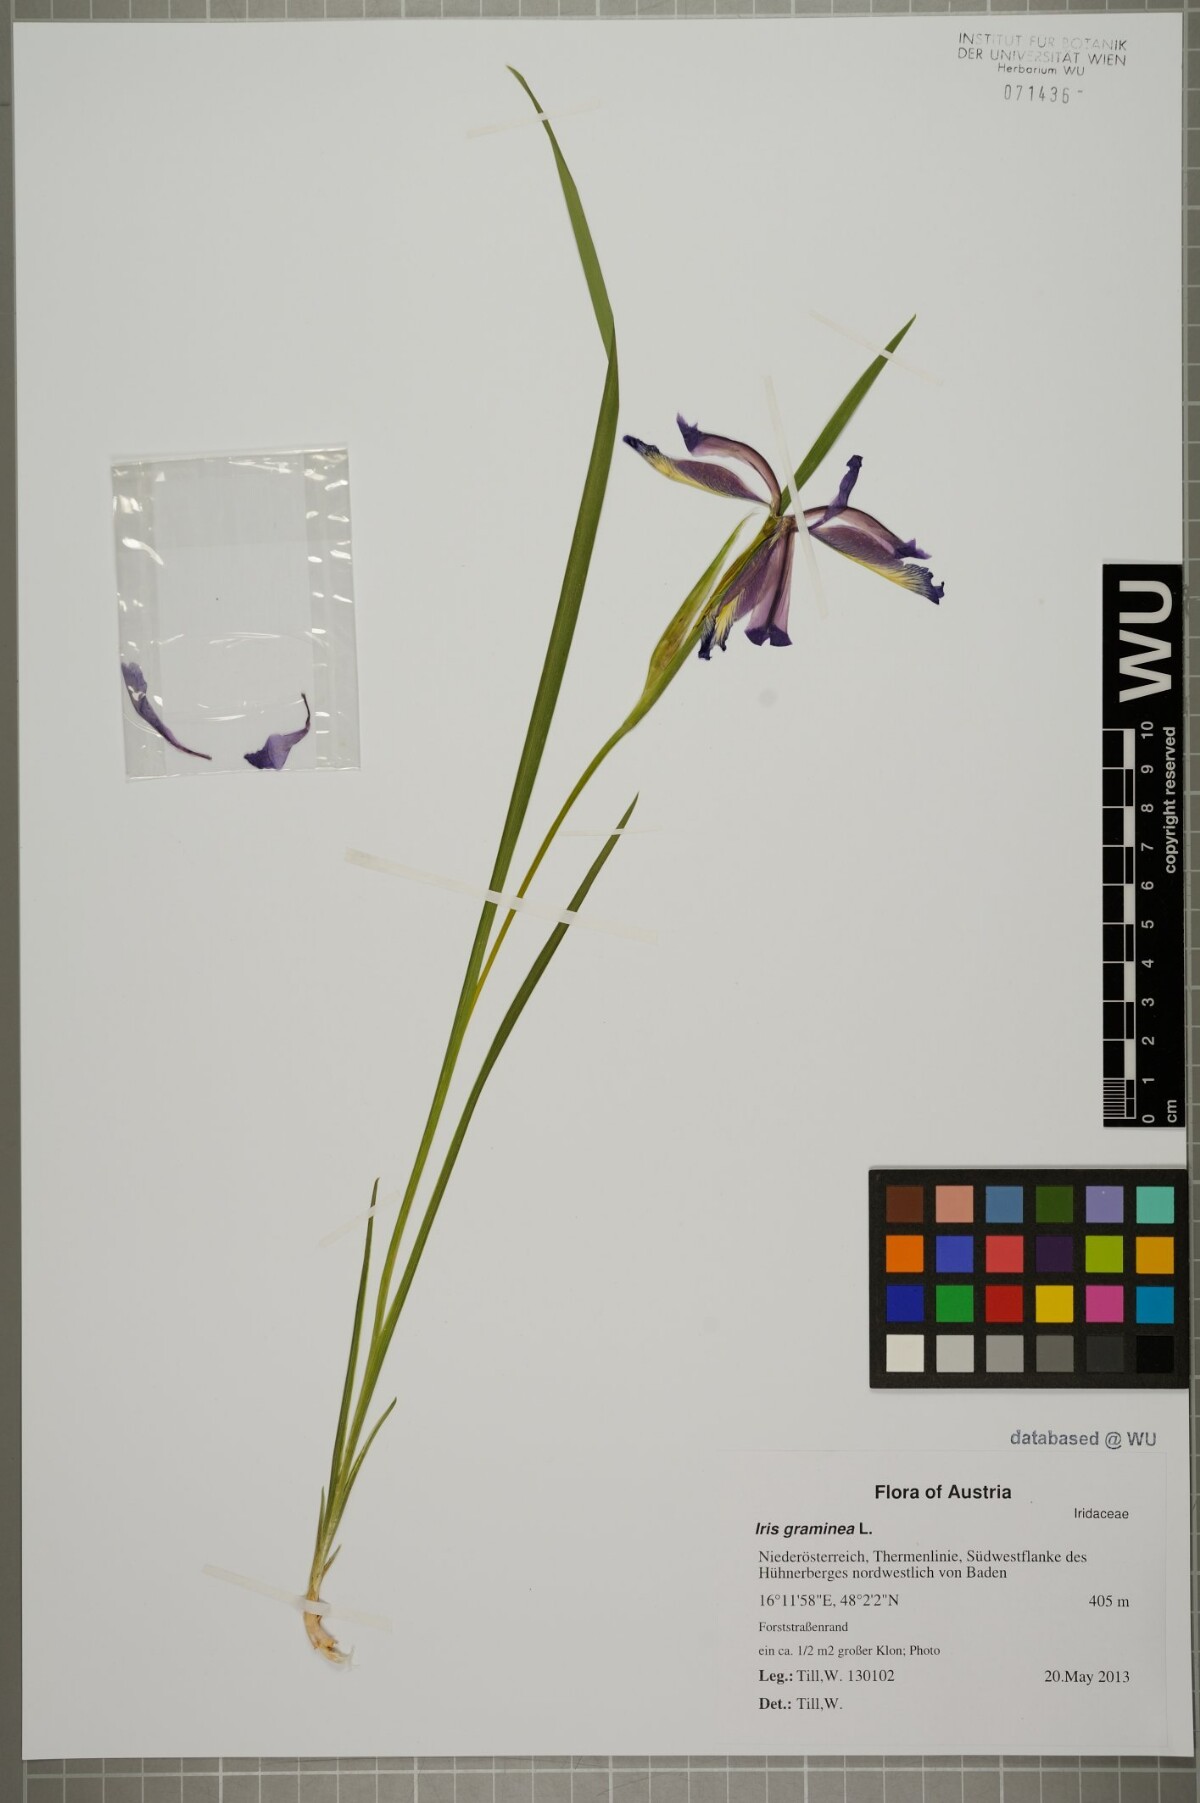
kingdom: Plantae
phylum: Tracheophyta
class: Liliopsida
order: Asparagales
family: Iridaceae
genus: Iris
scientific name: Iris graminea
